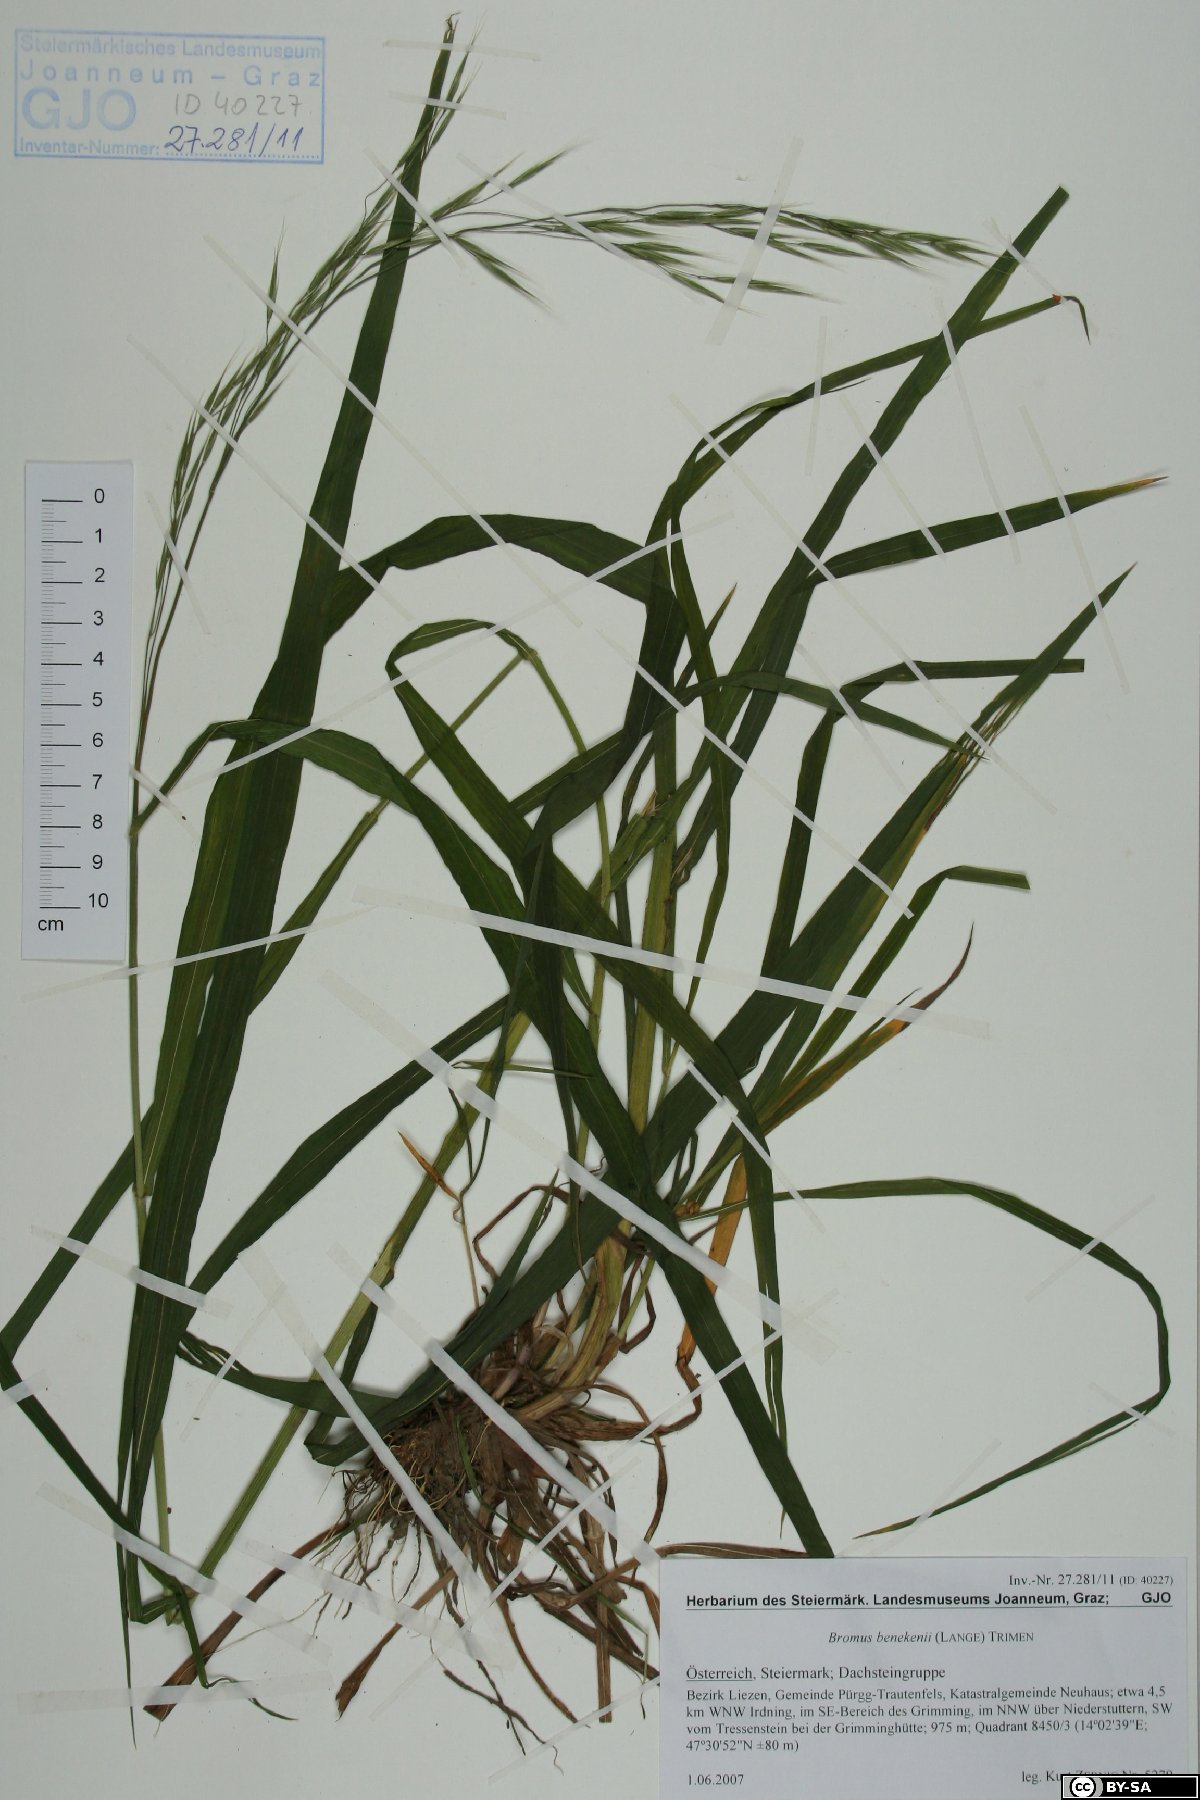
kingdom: Plantae
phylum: Tracheophyta
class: Liliopsida
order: Poales
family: Poaceae
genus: Bromus
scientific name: Bromus benekenii
